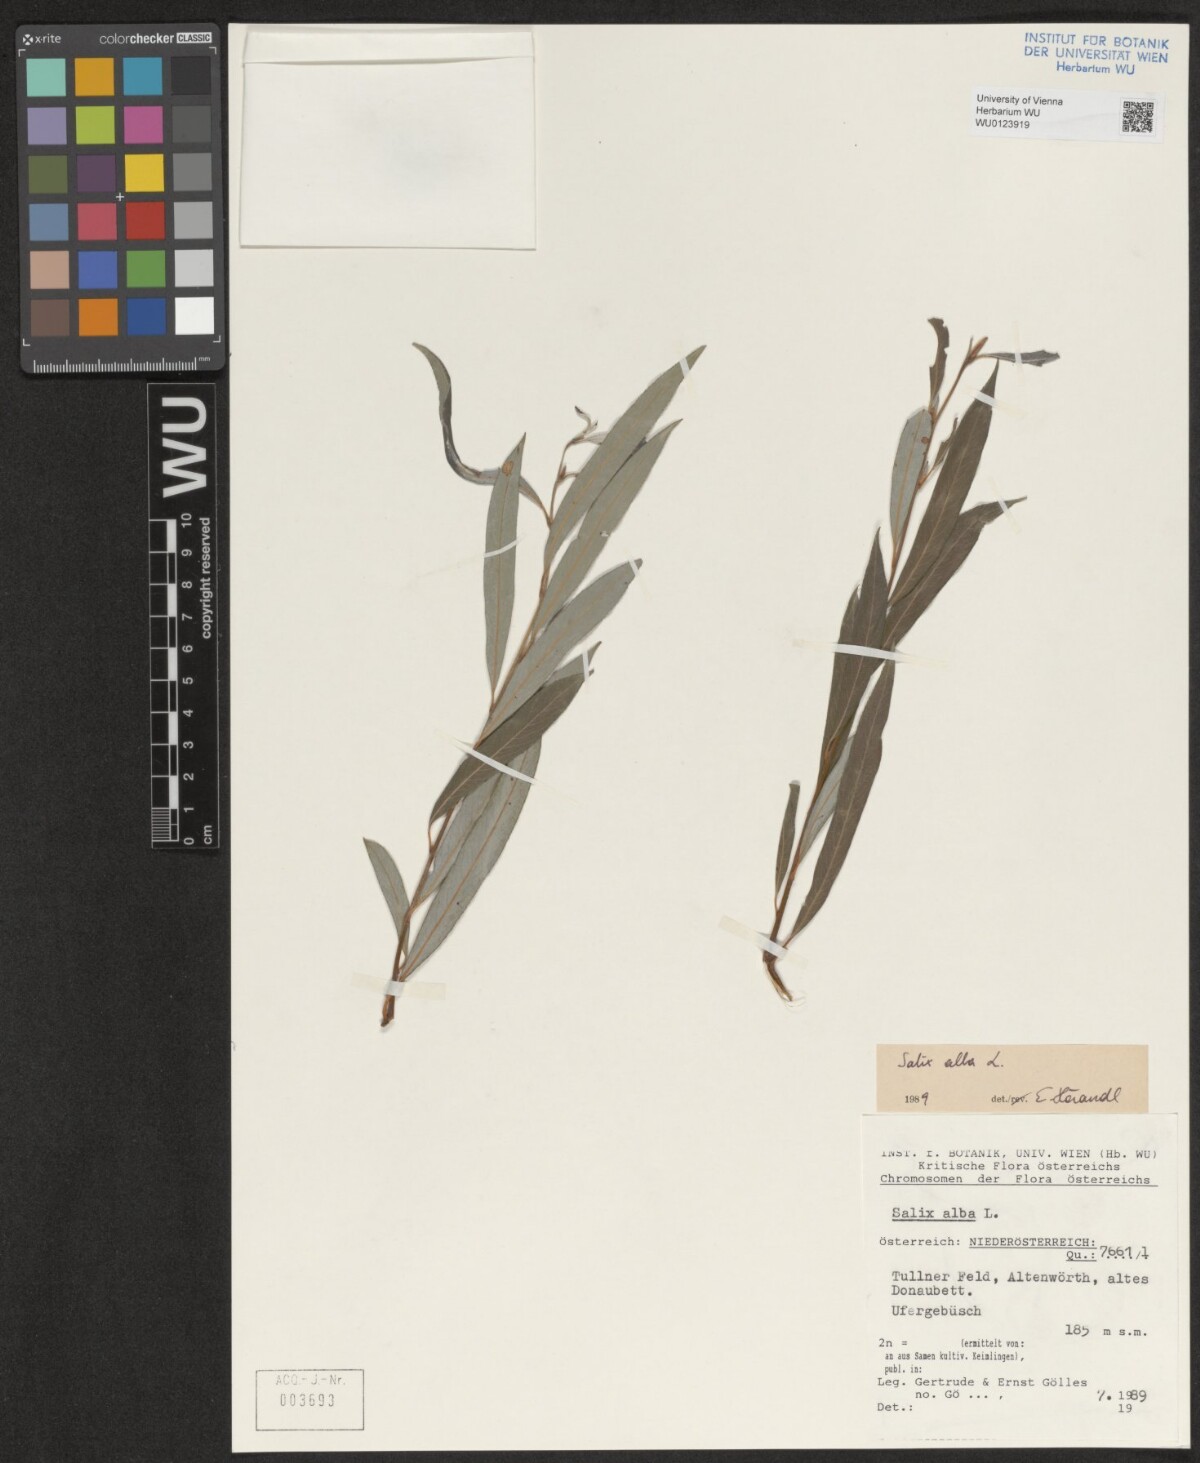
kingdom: Plantae
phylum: Tracheophyta
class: Magnoliopsida
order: Malpighiales
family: Salicaceae
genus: Salix
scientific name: Salix alba
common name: White willow
